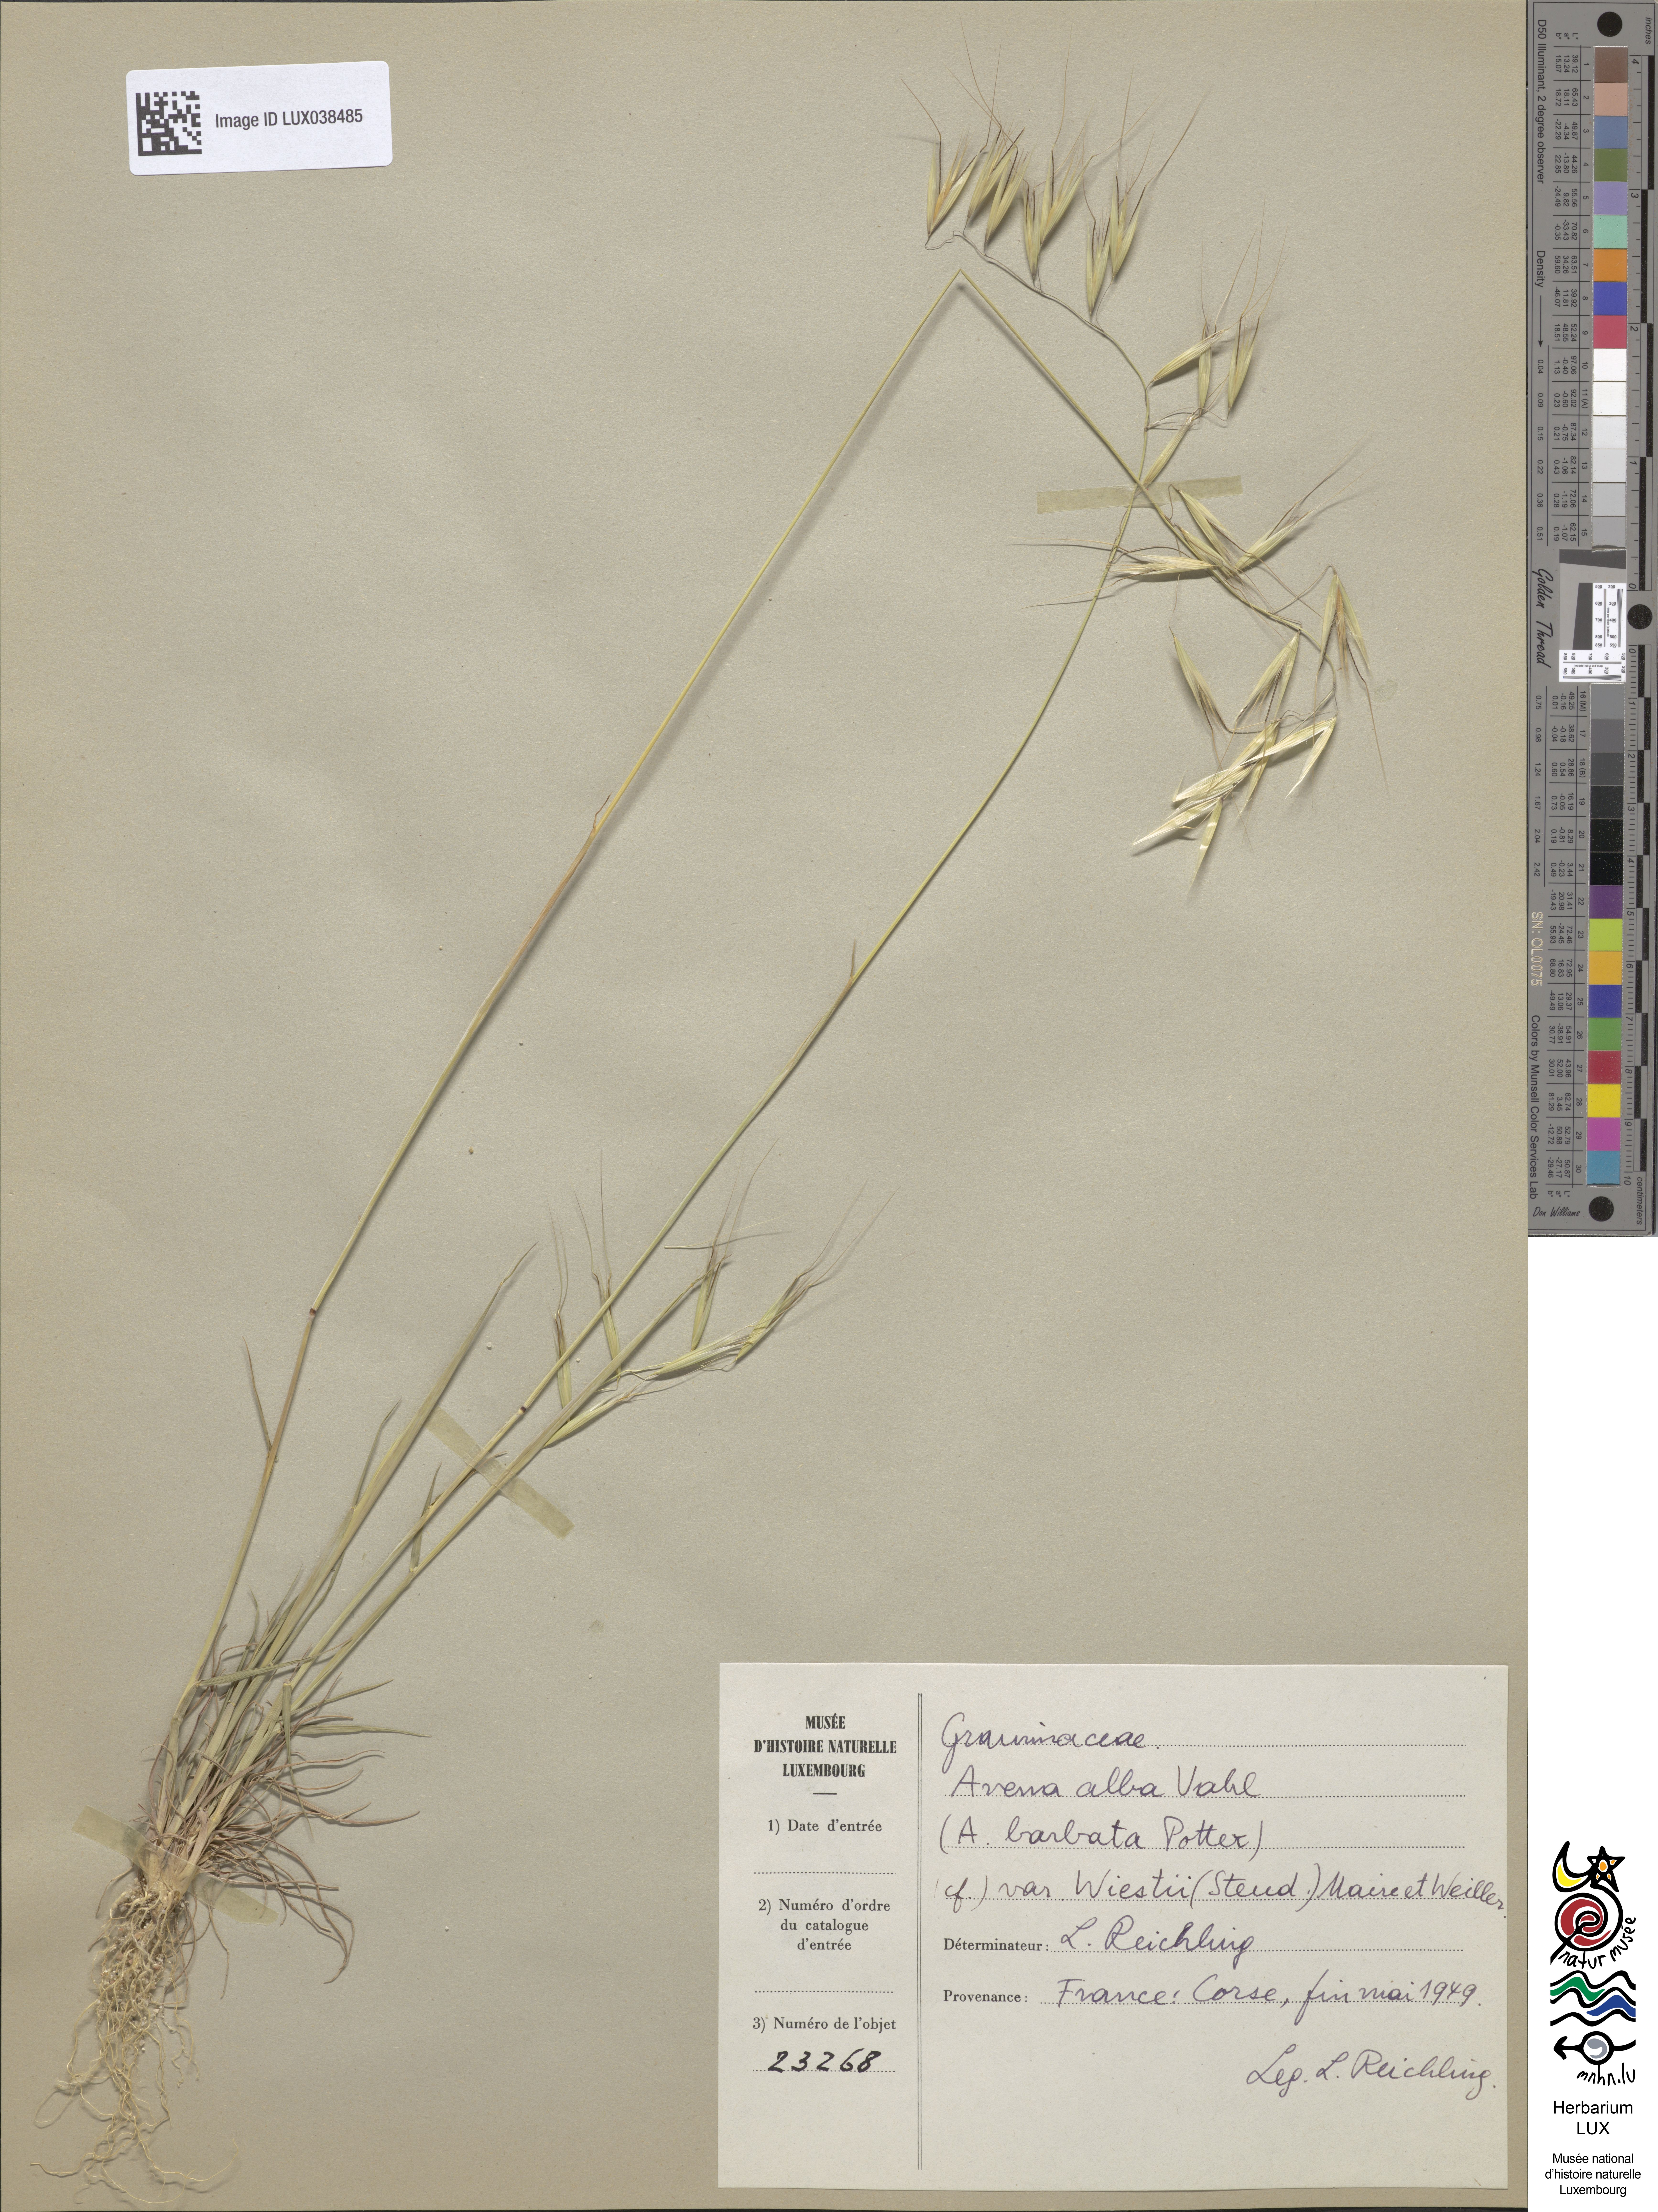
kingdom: Plantae
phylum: Tracheophyta
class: Liliopsida
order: Poales
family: Poaceae
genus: Avena
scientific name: Avena barbata
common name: Slender oat
